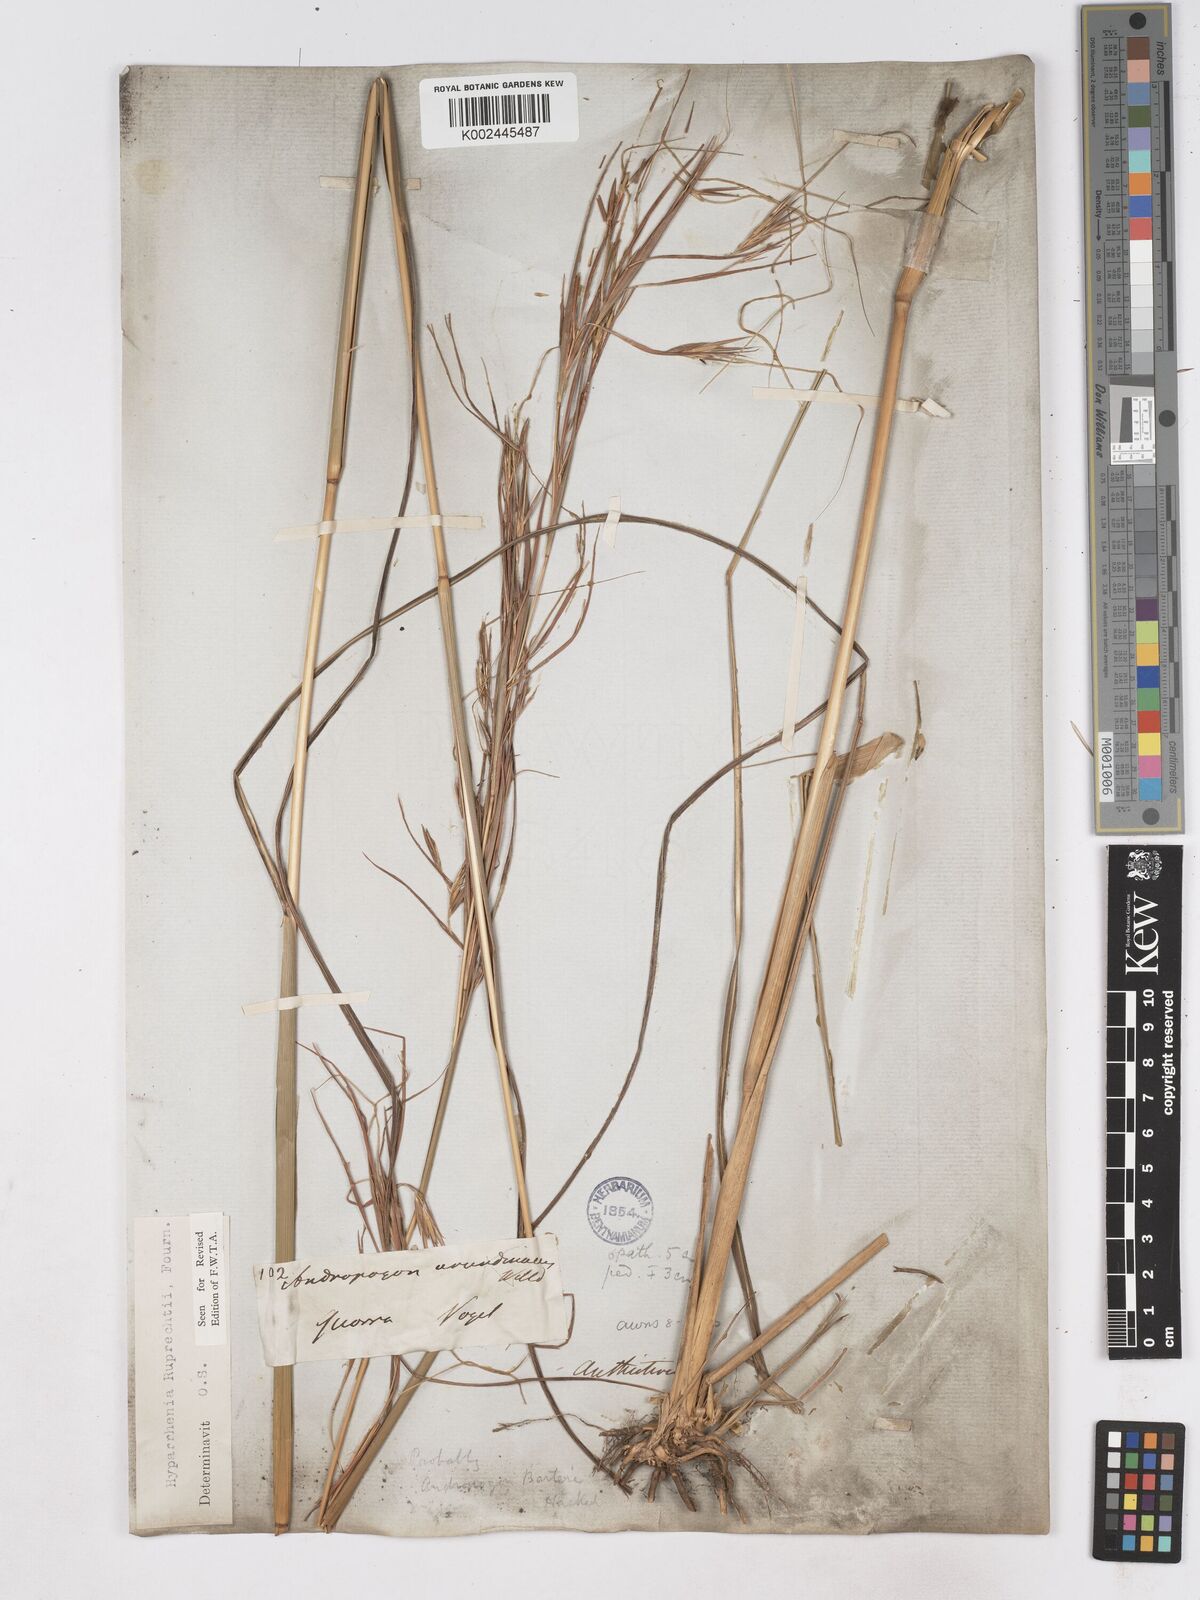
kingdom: Plantae
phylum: Tracheophyta
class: Liliopsida
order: Poales
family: Poaceae
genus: Hyperthelia
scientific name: Hyperthelia dissoluta
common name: Yellow thatching grass
